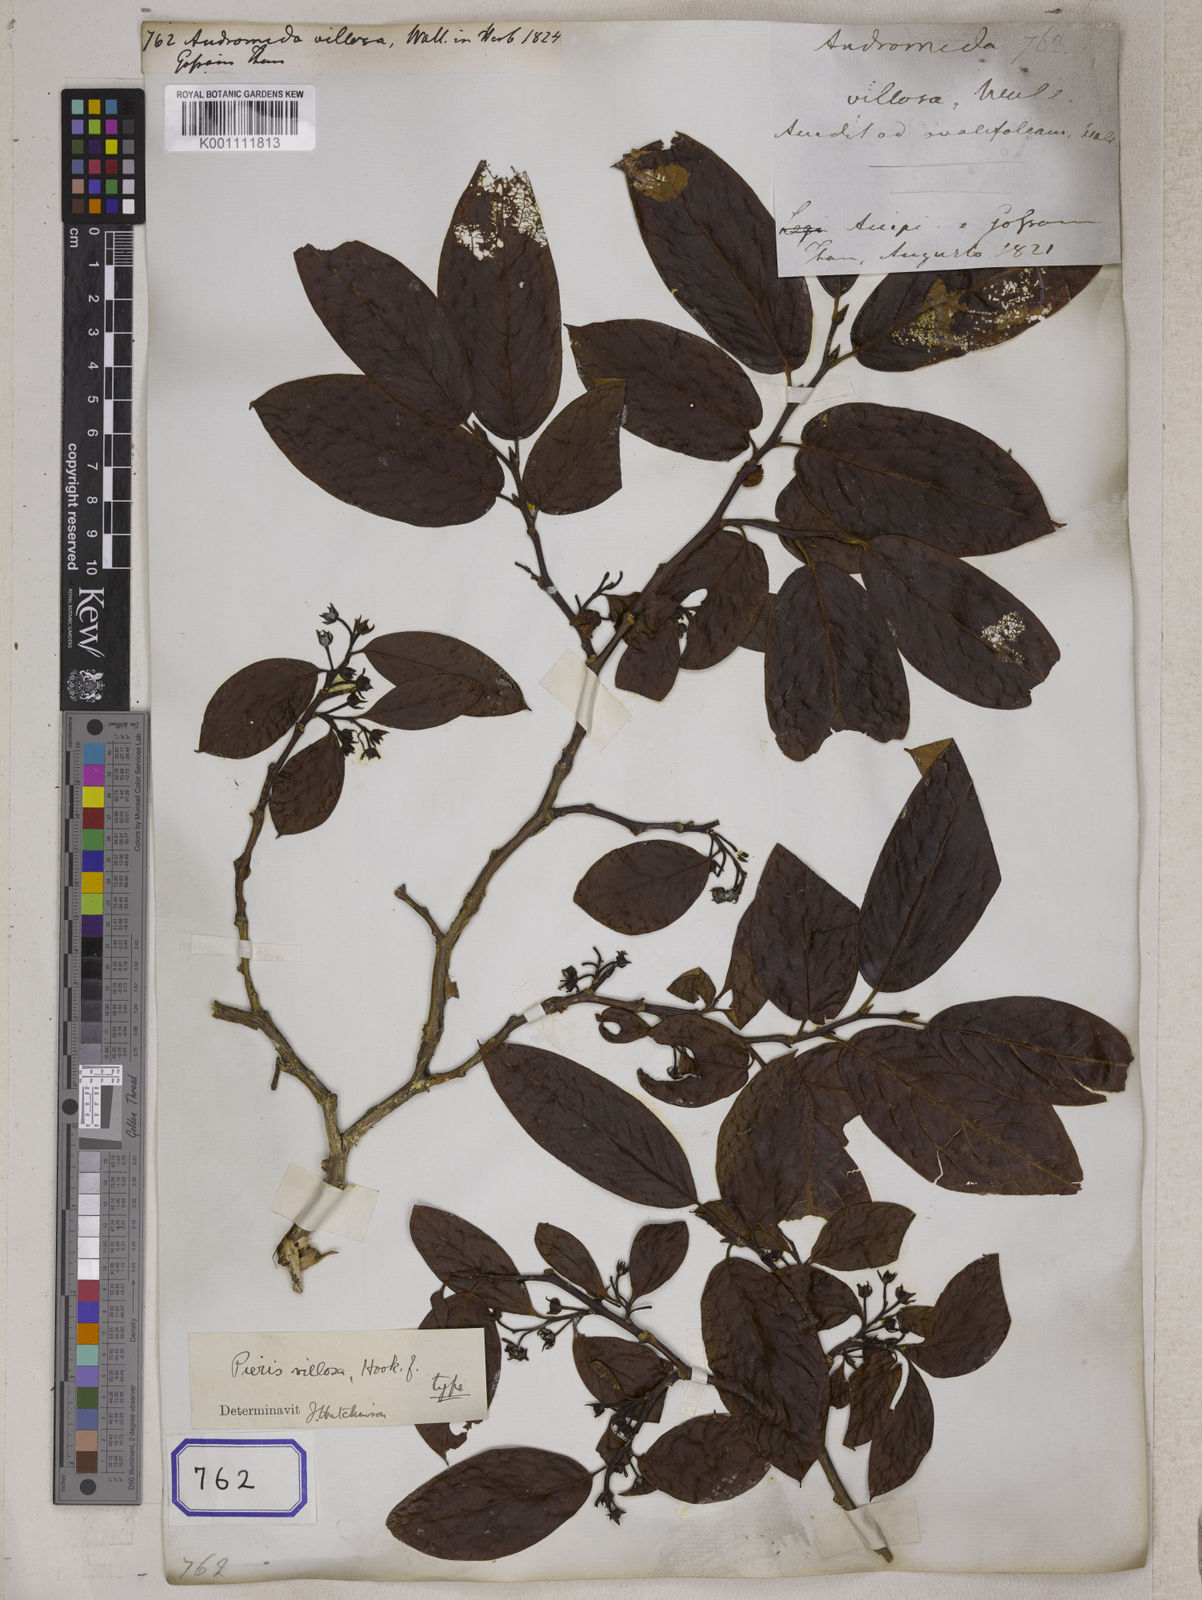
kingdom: Plantae
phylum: Tracheophyta
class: Magnoliopsida
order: Ericales
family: Ericaceae
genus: Lyonia
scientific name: Lyonia villosa
